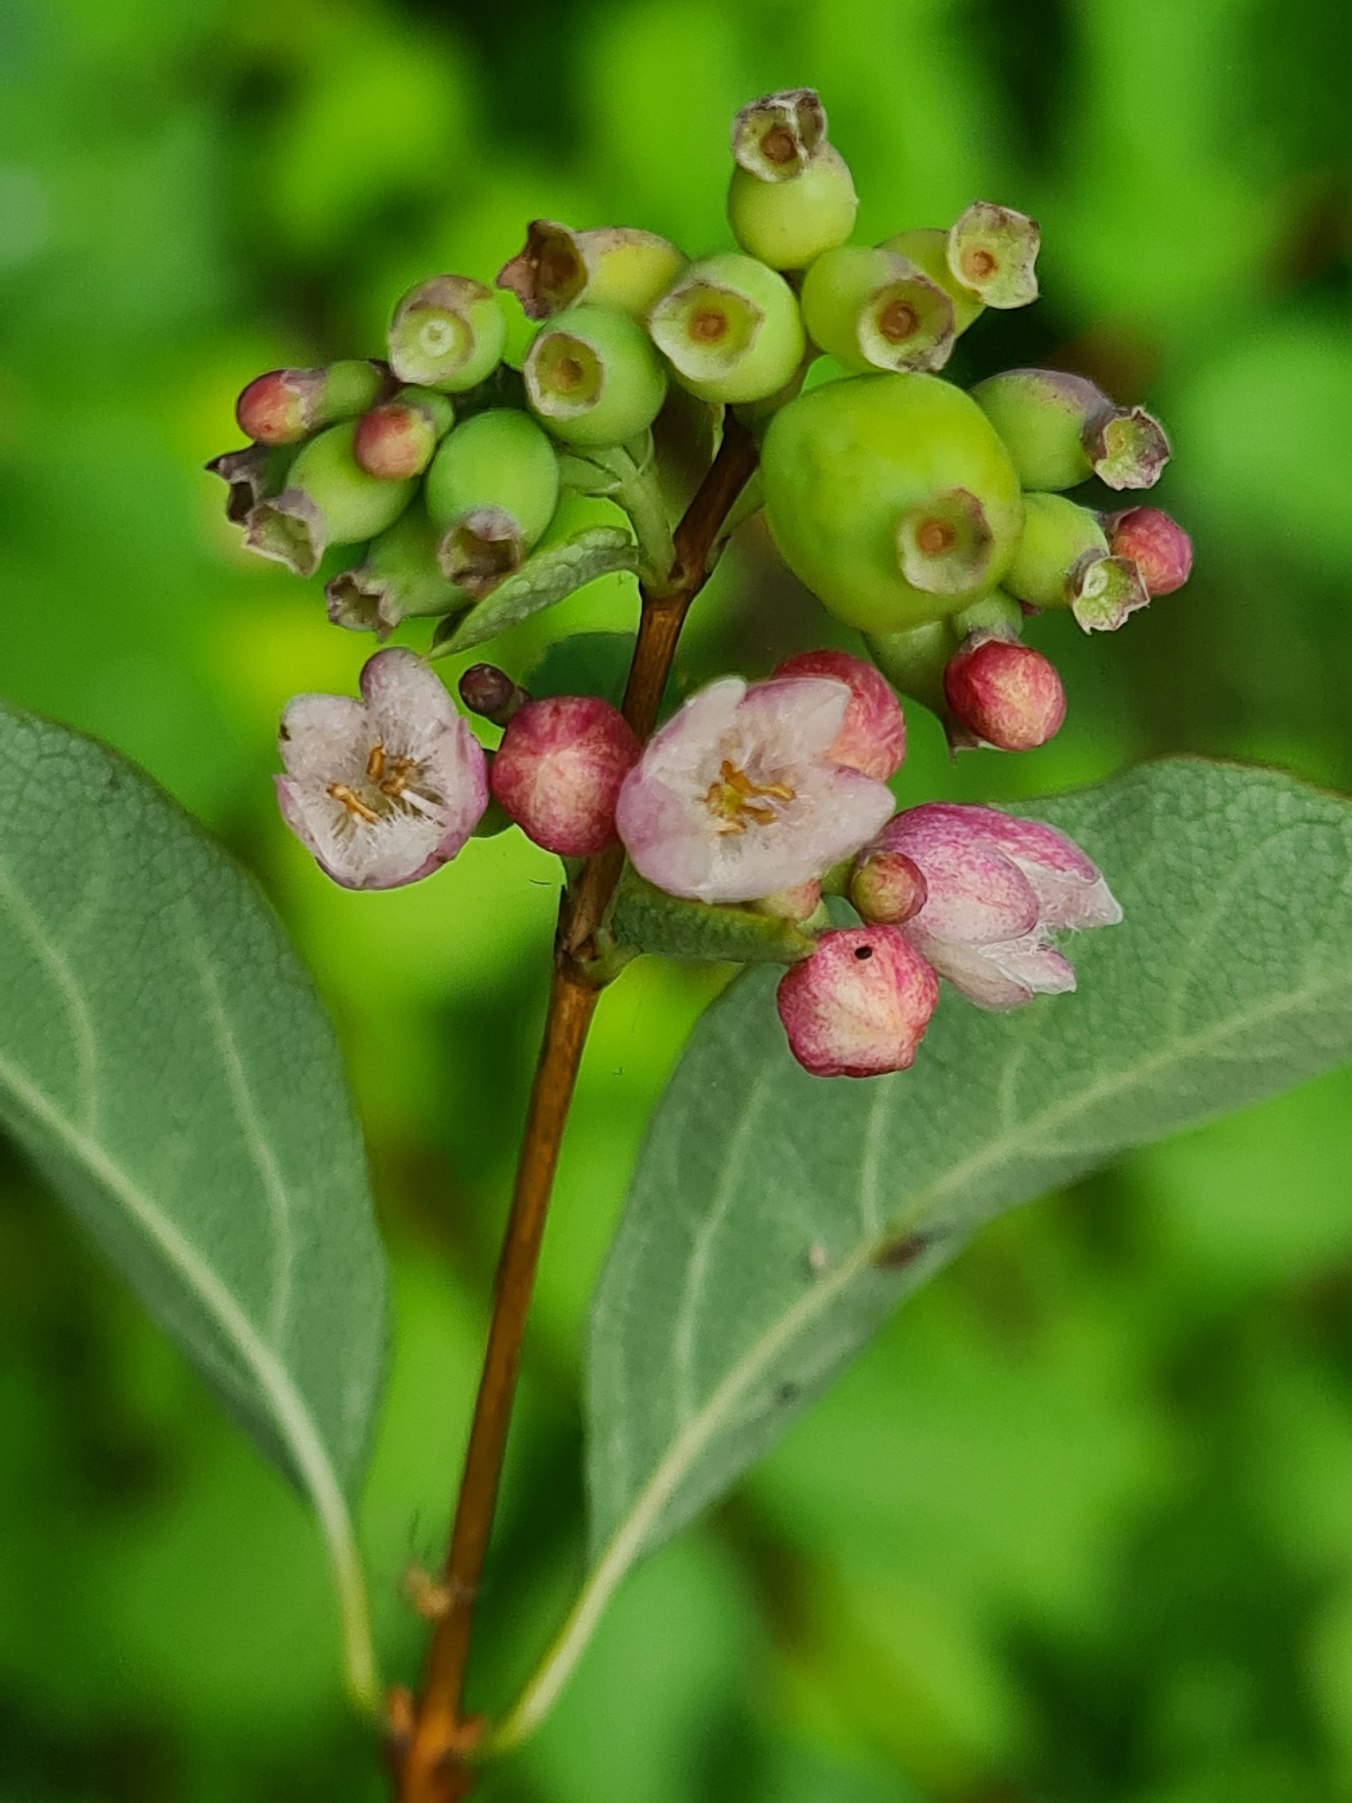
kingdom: Plantae
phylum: Tracheophyta
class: Magnoliopsida
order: Dipsacales
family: Caprifoliaceae
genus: Symphoricarpos
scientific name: Symphoricarpos albus
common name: Almindelig snebær
